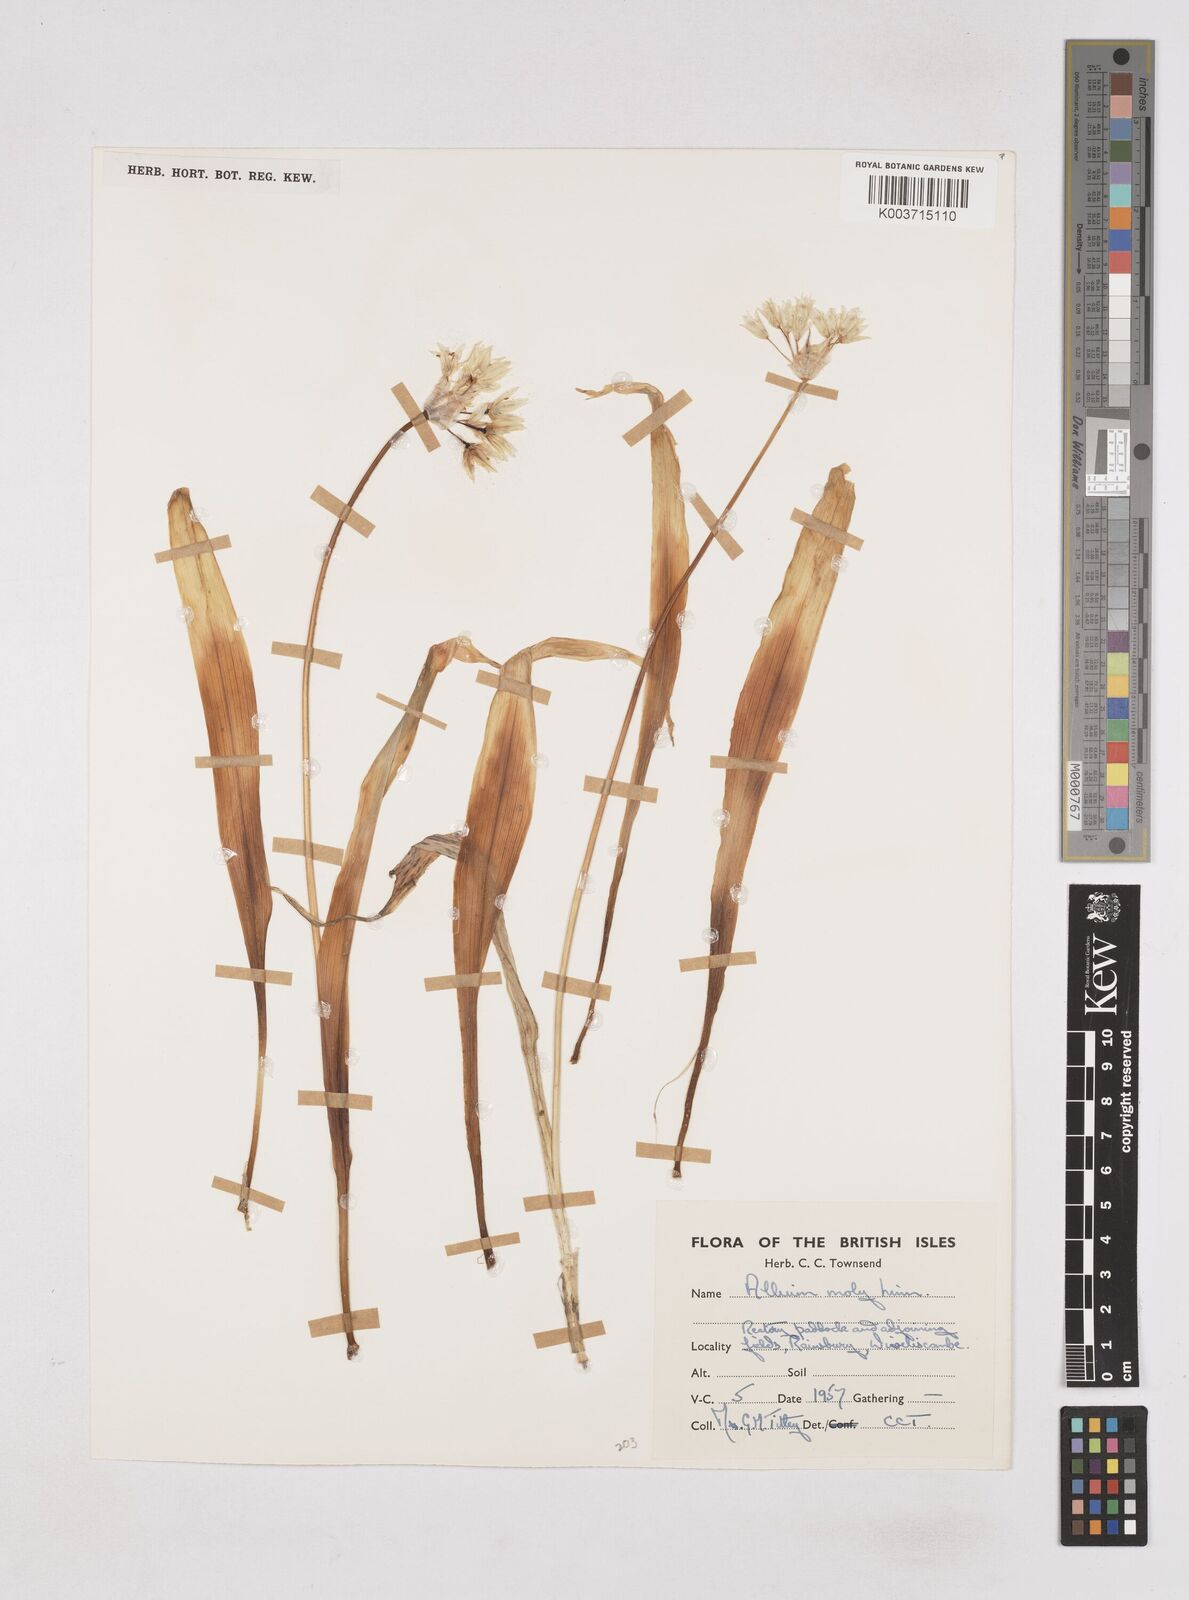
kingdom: Plantae
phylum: Tracheophyta
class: Liliopsida
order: Asparagales
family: Amaryllidaceae
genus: Allium
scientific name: Allium moly
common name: Yellow garlic
